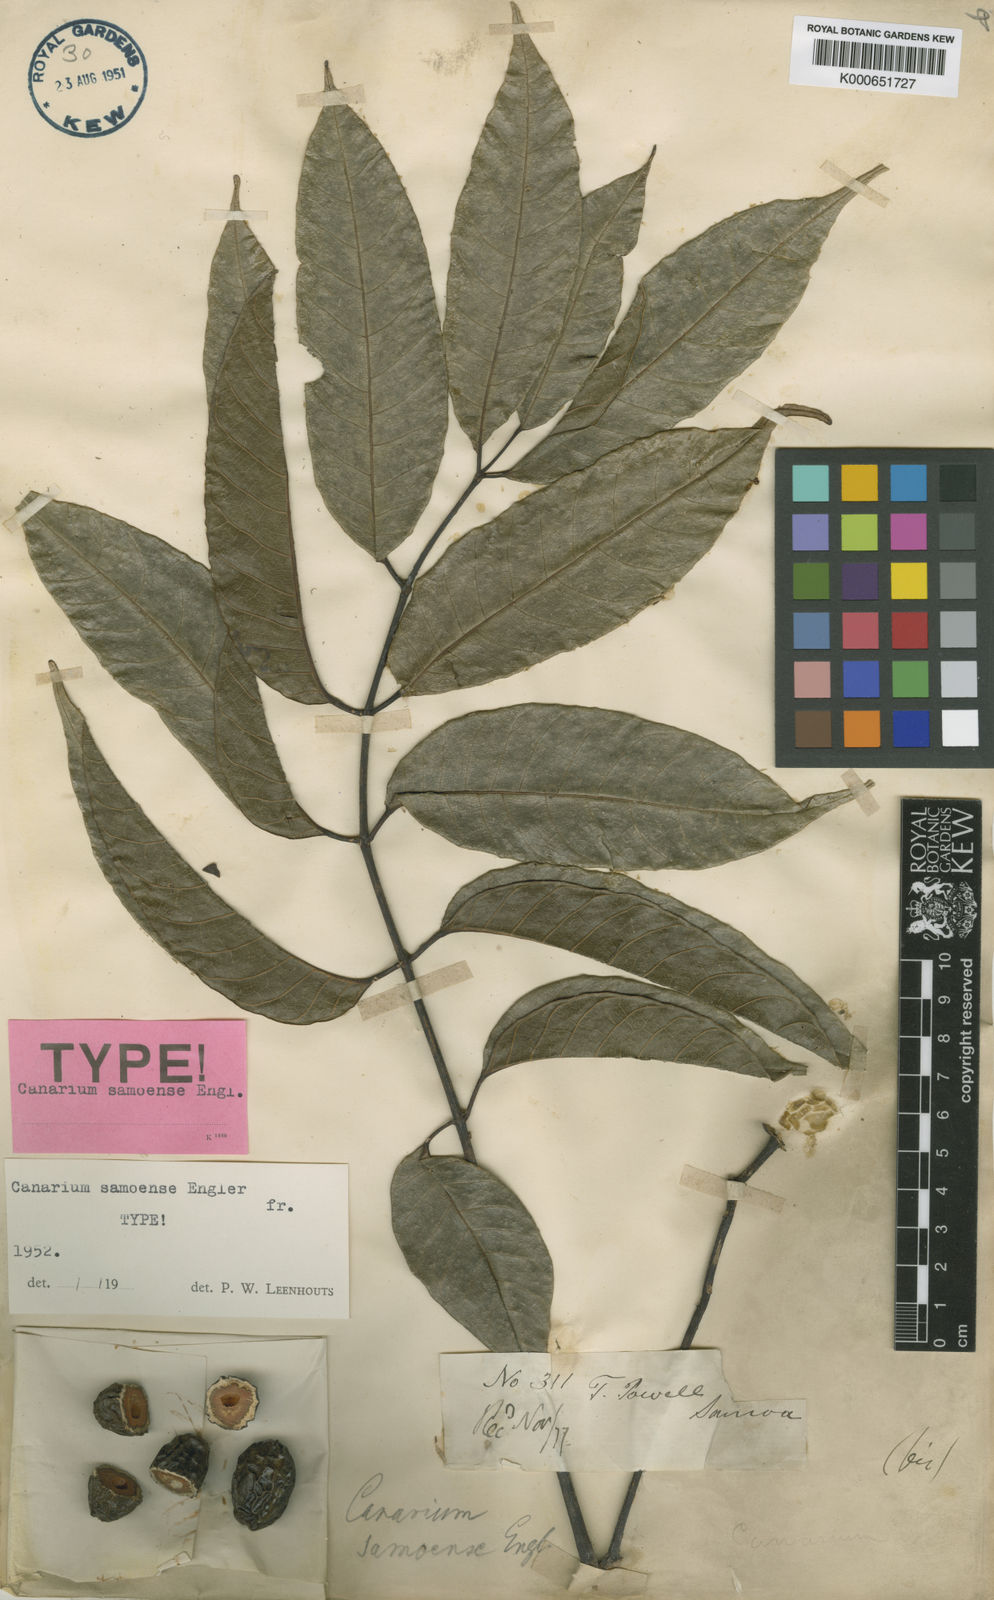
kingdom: Plantae
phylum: Tracheophyta
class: Magnoliopsida
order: Sapindales
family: Burseraceae
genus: Canarium
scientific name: Canarium vitiense
